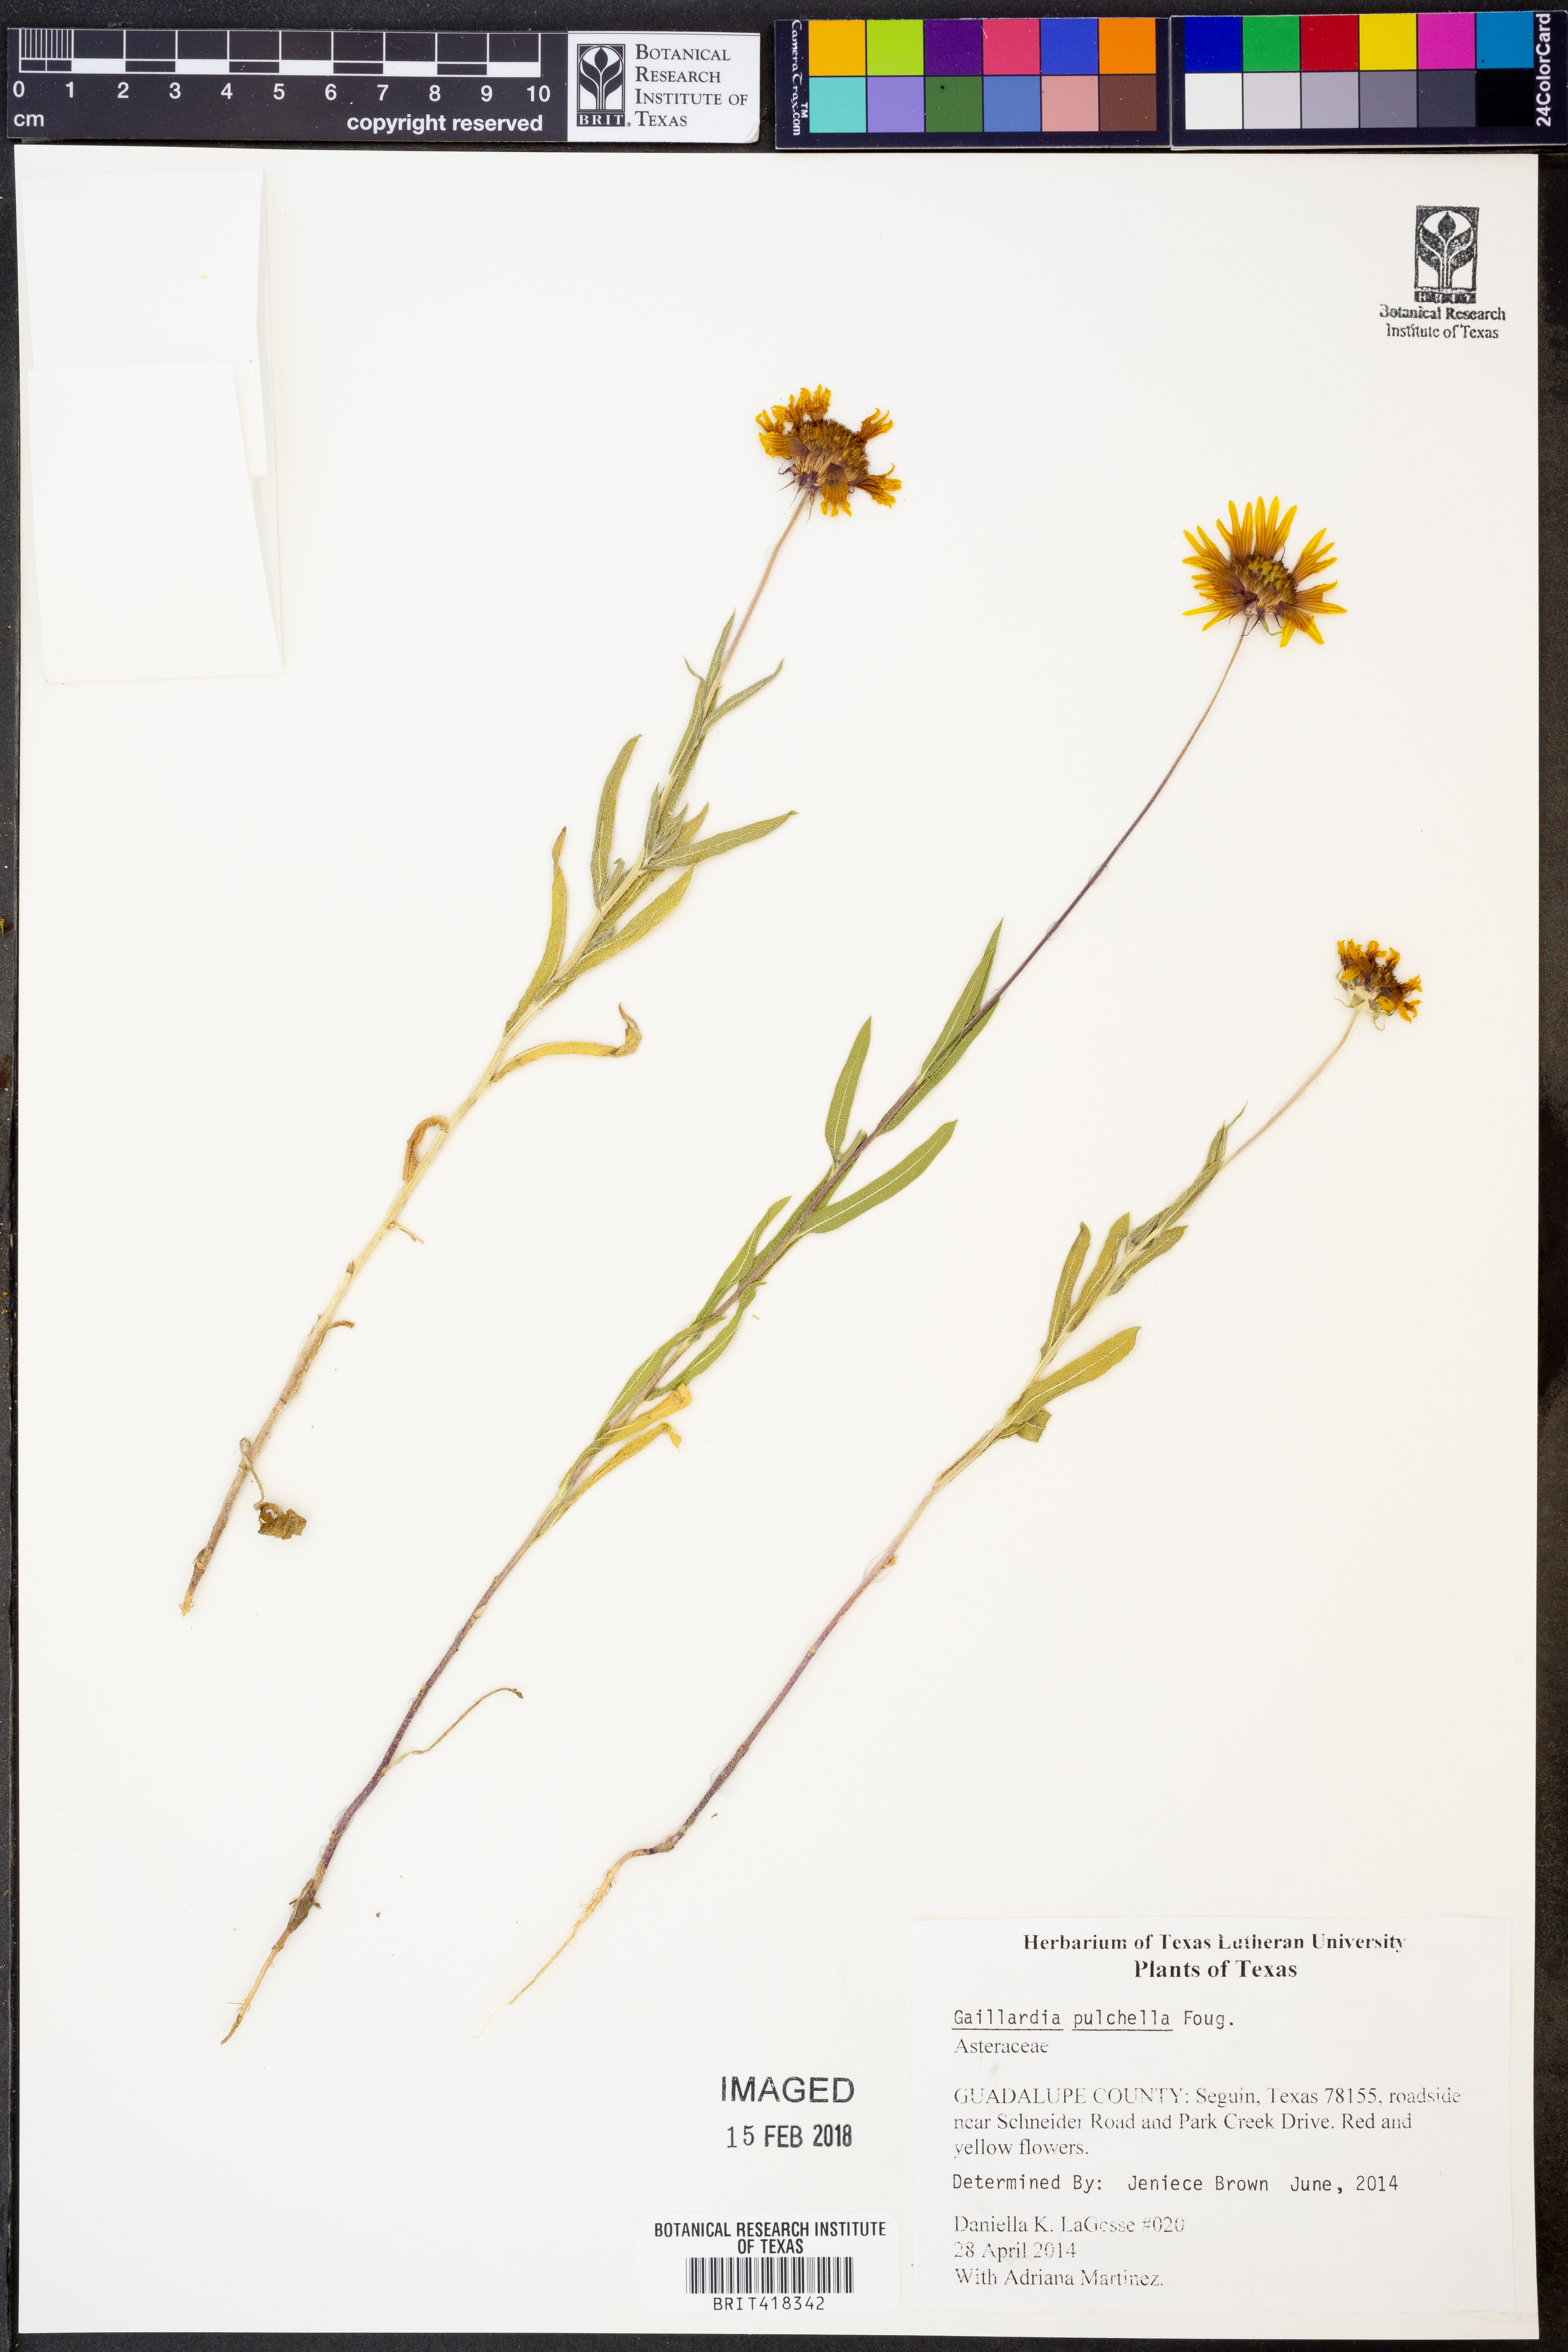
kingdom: Plantae
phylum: Tracheophyta
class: Magnoliopsida
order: Asterales
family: Asteraceae
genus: Gaillardia
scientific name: Gaillardia pulchella
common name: Firewheel
